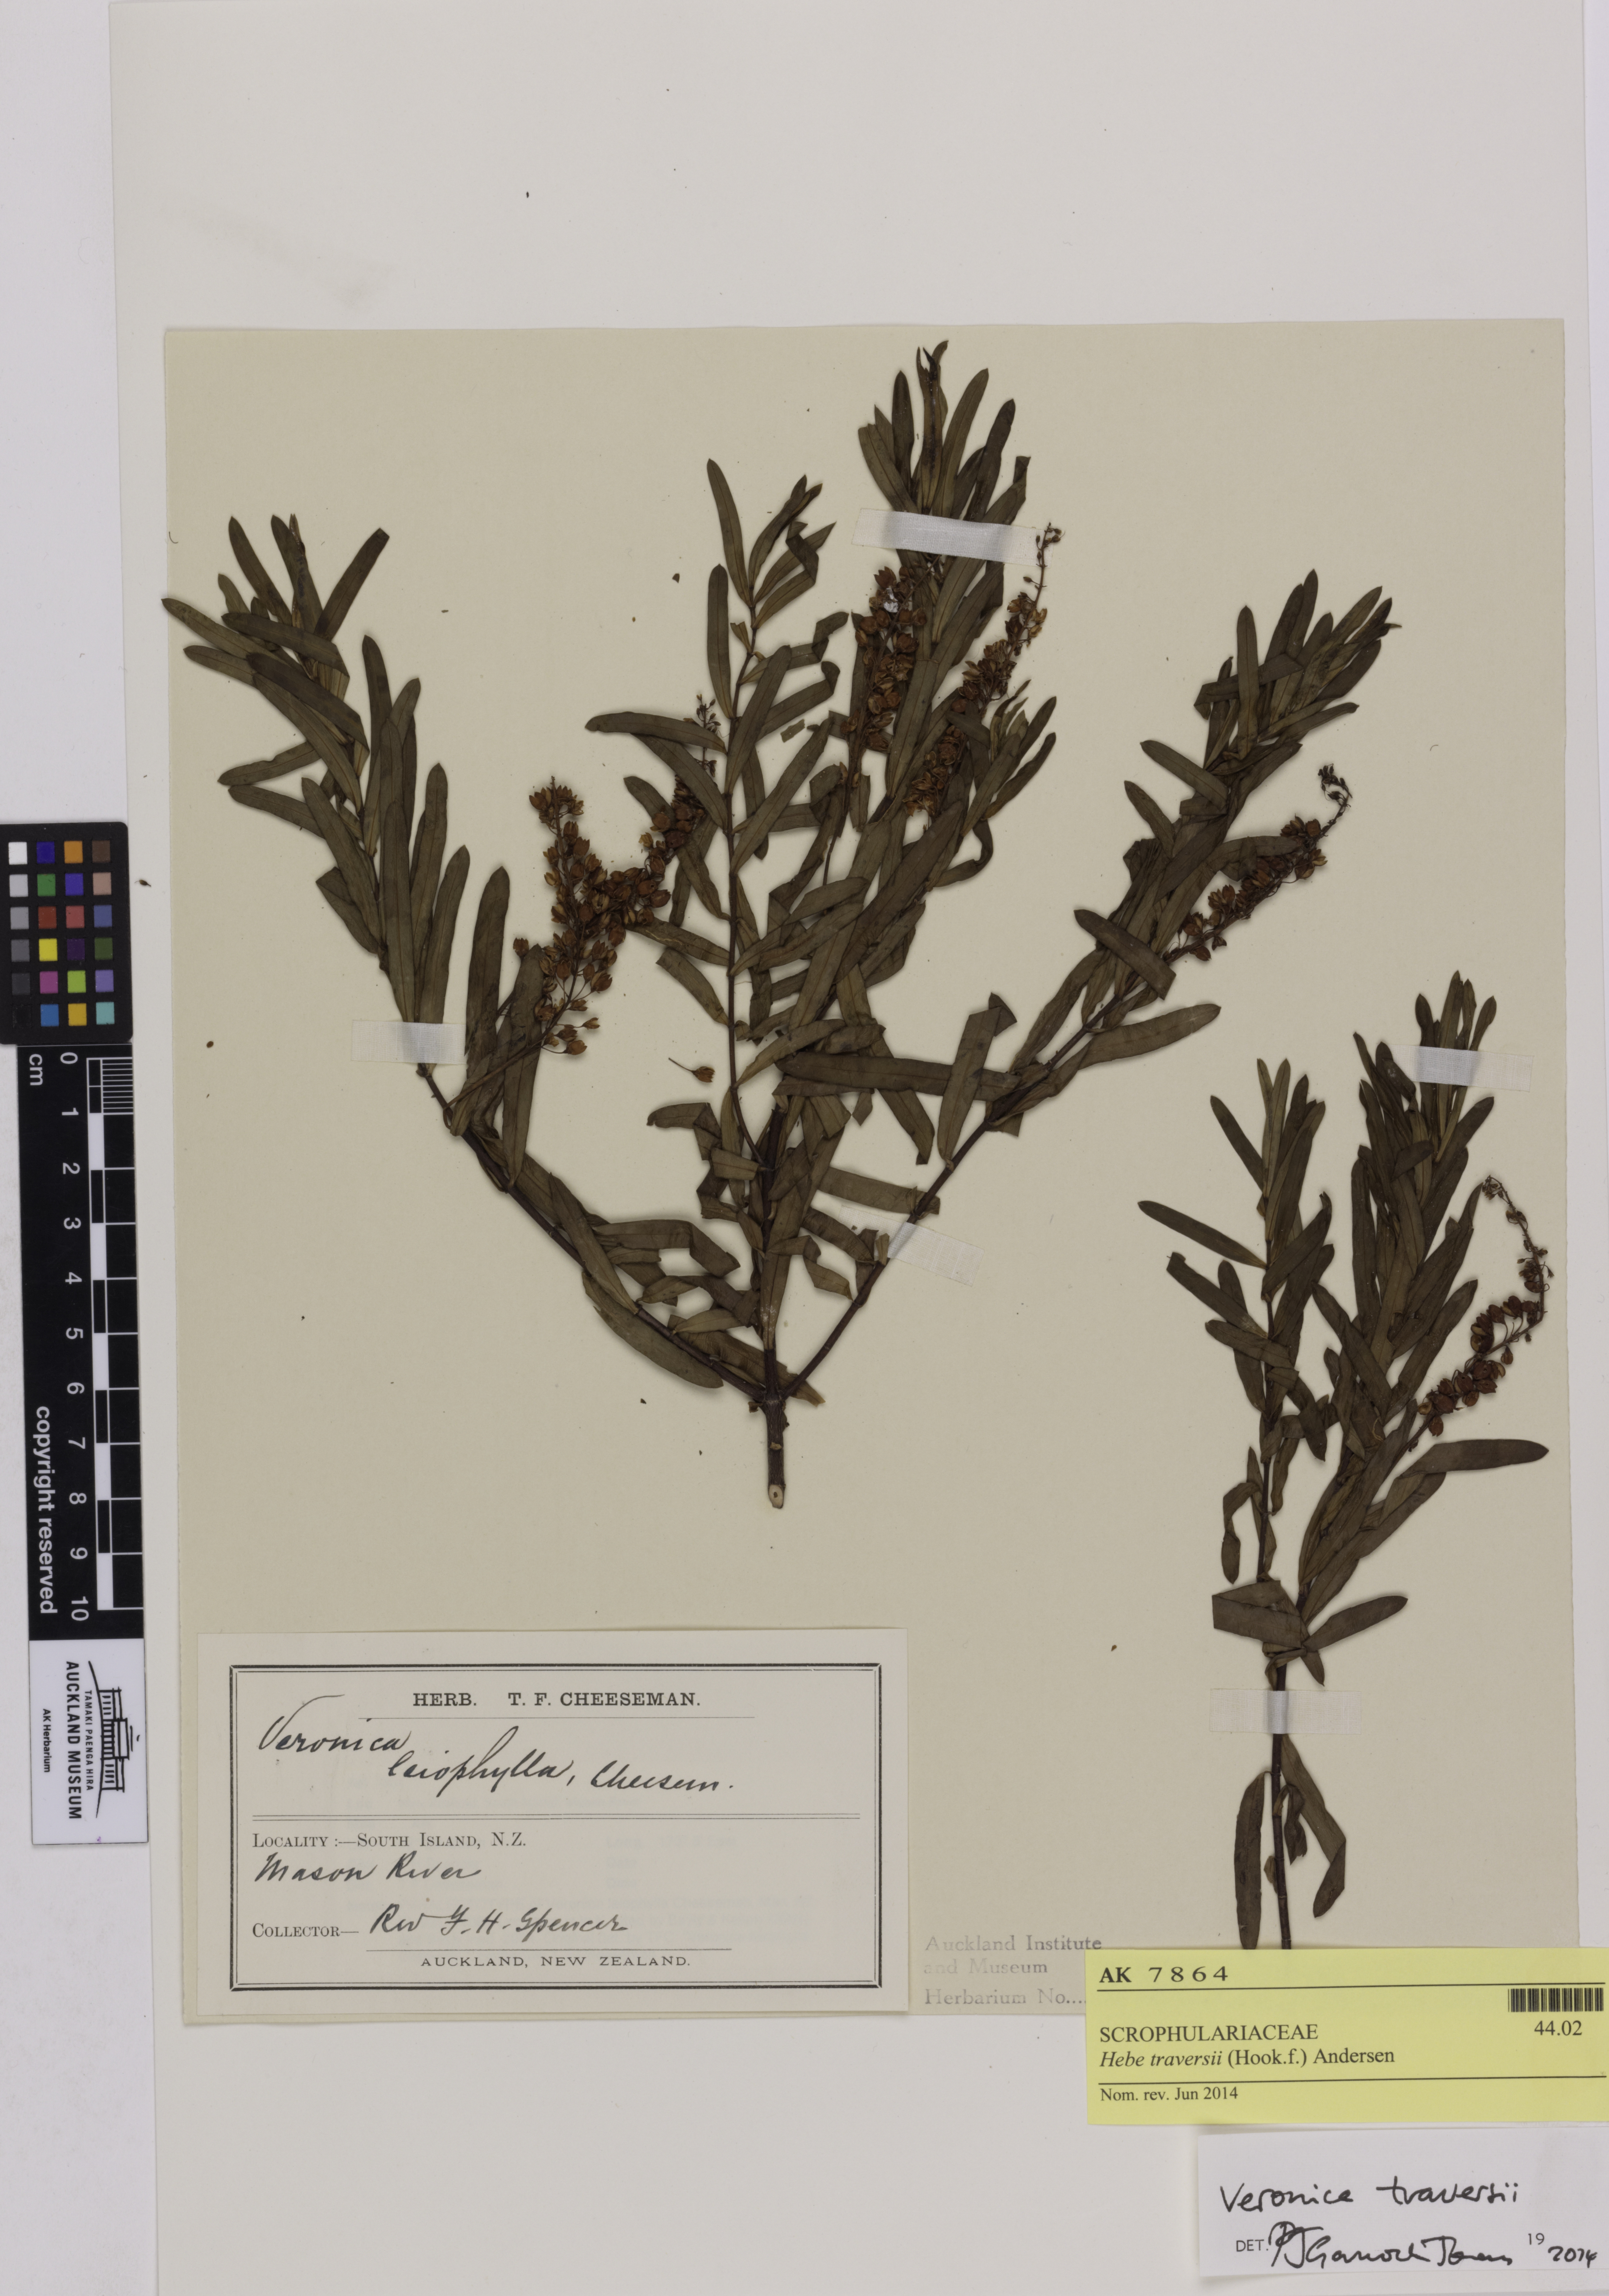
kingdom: Plantae
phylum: Tracheophyta
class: Magnoliopsida
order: Lamiales
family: Plantaginaceae
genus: Veronica
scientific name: Veronica traversii
